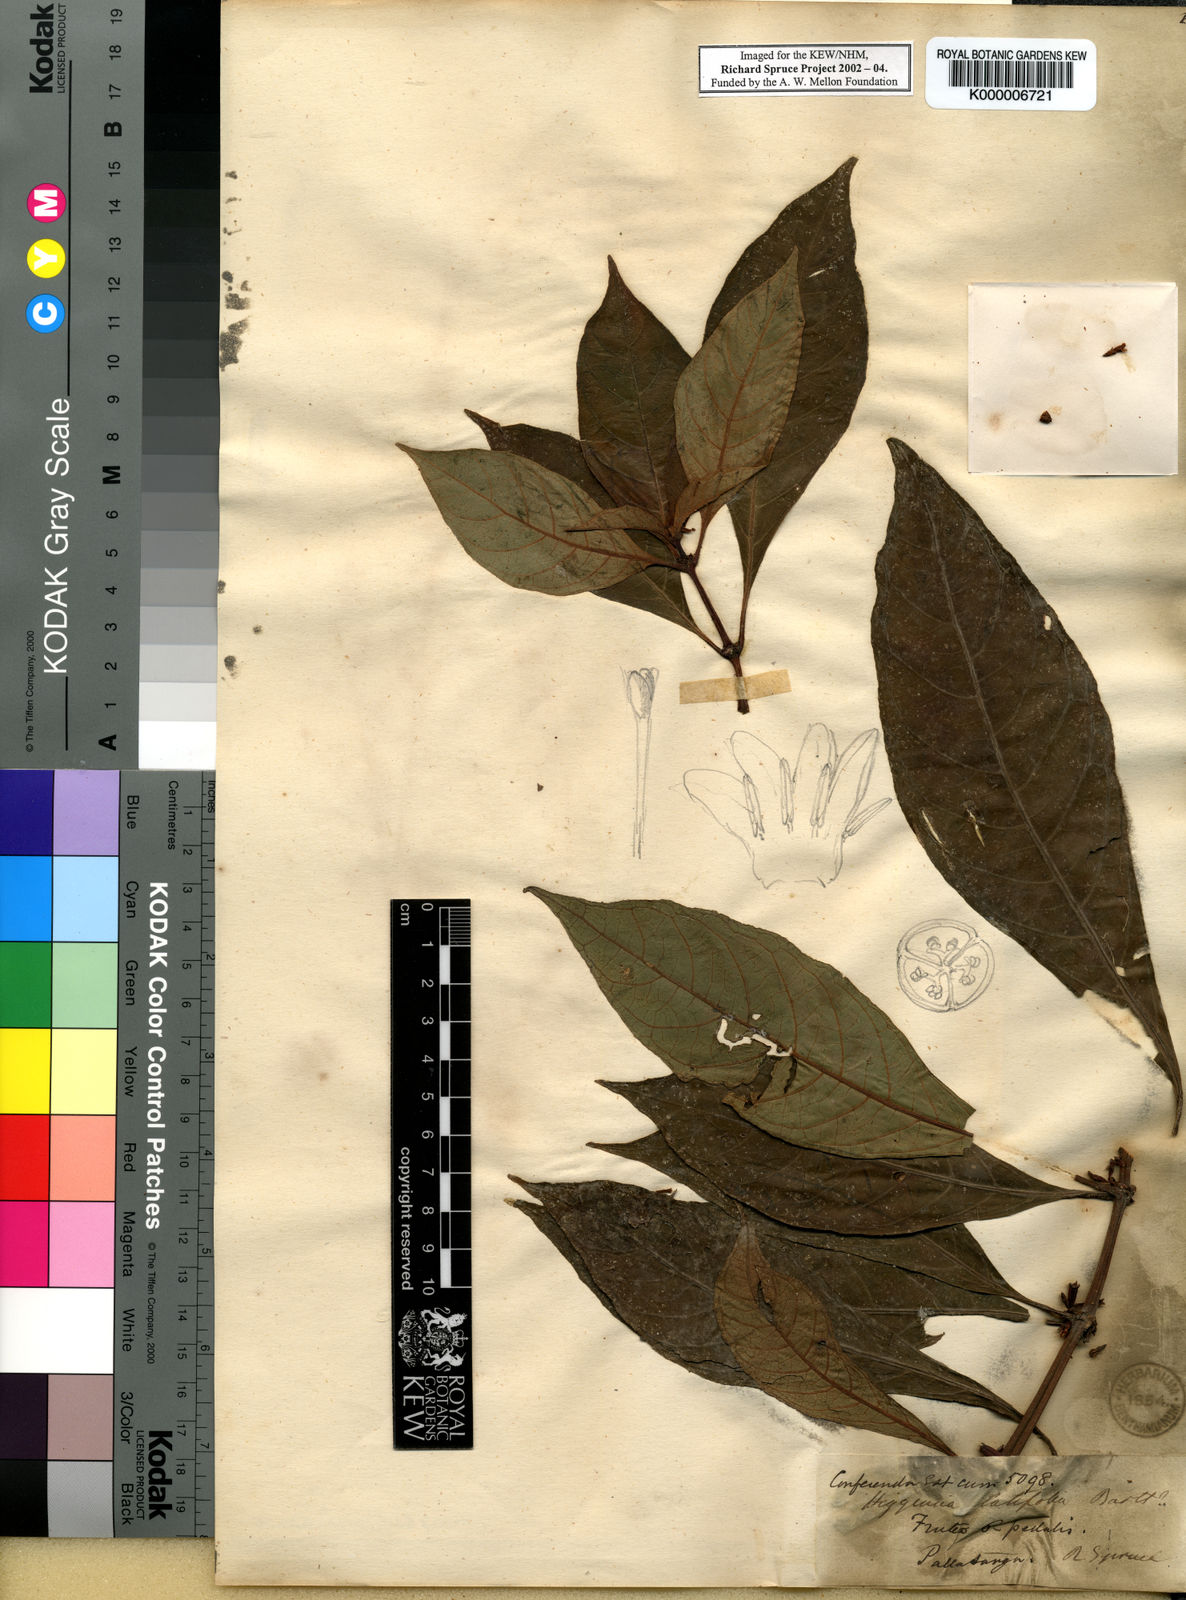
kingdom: Plantae
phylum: Tracheophyta
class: Magnoliopsida
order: Gentianales
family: Rubiaceae
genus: Hoffmannia
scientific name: Hoffmannia sprucei
